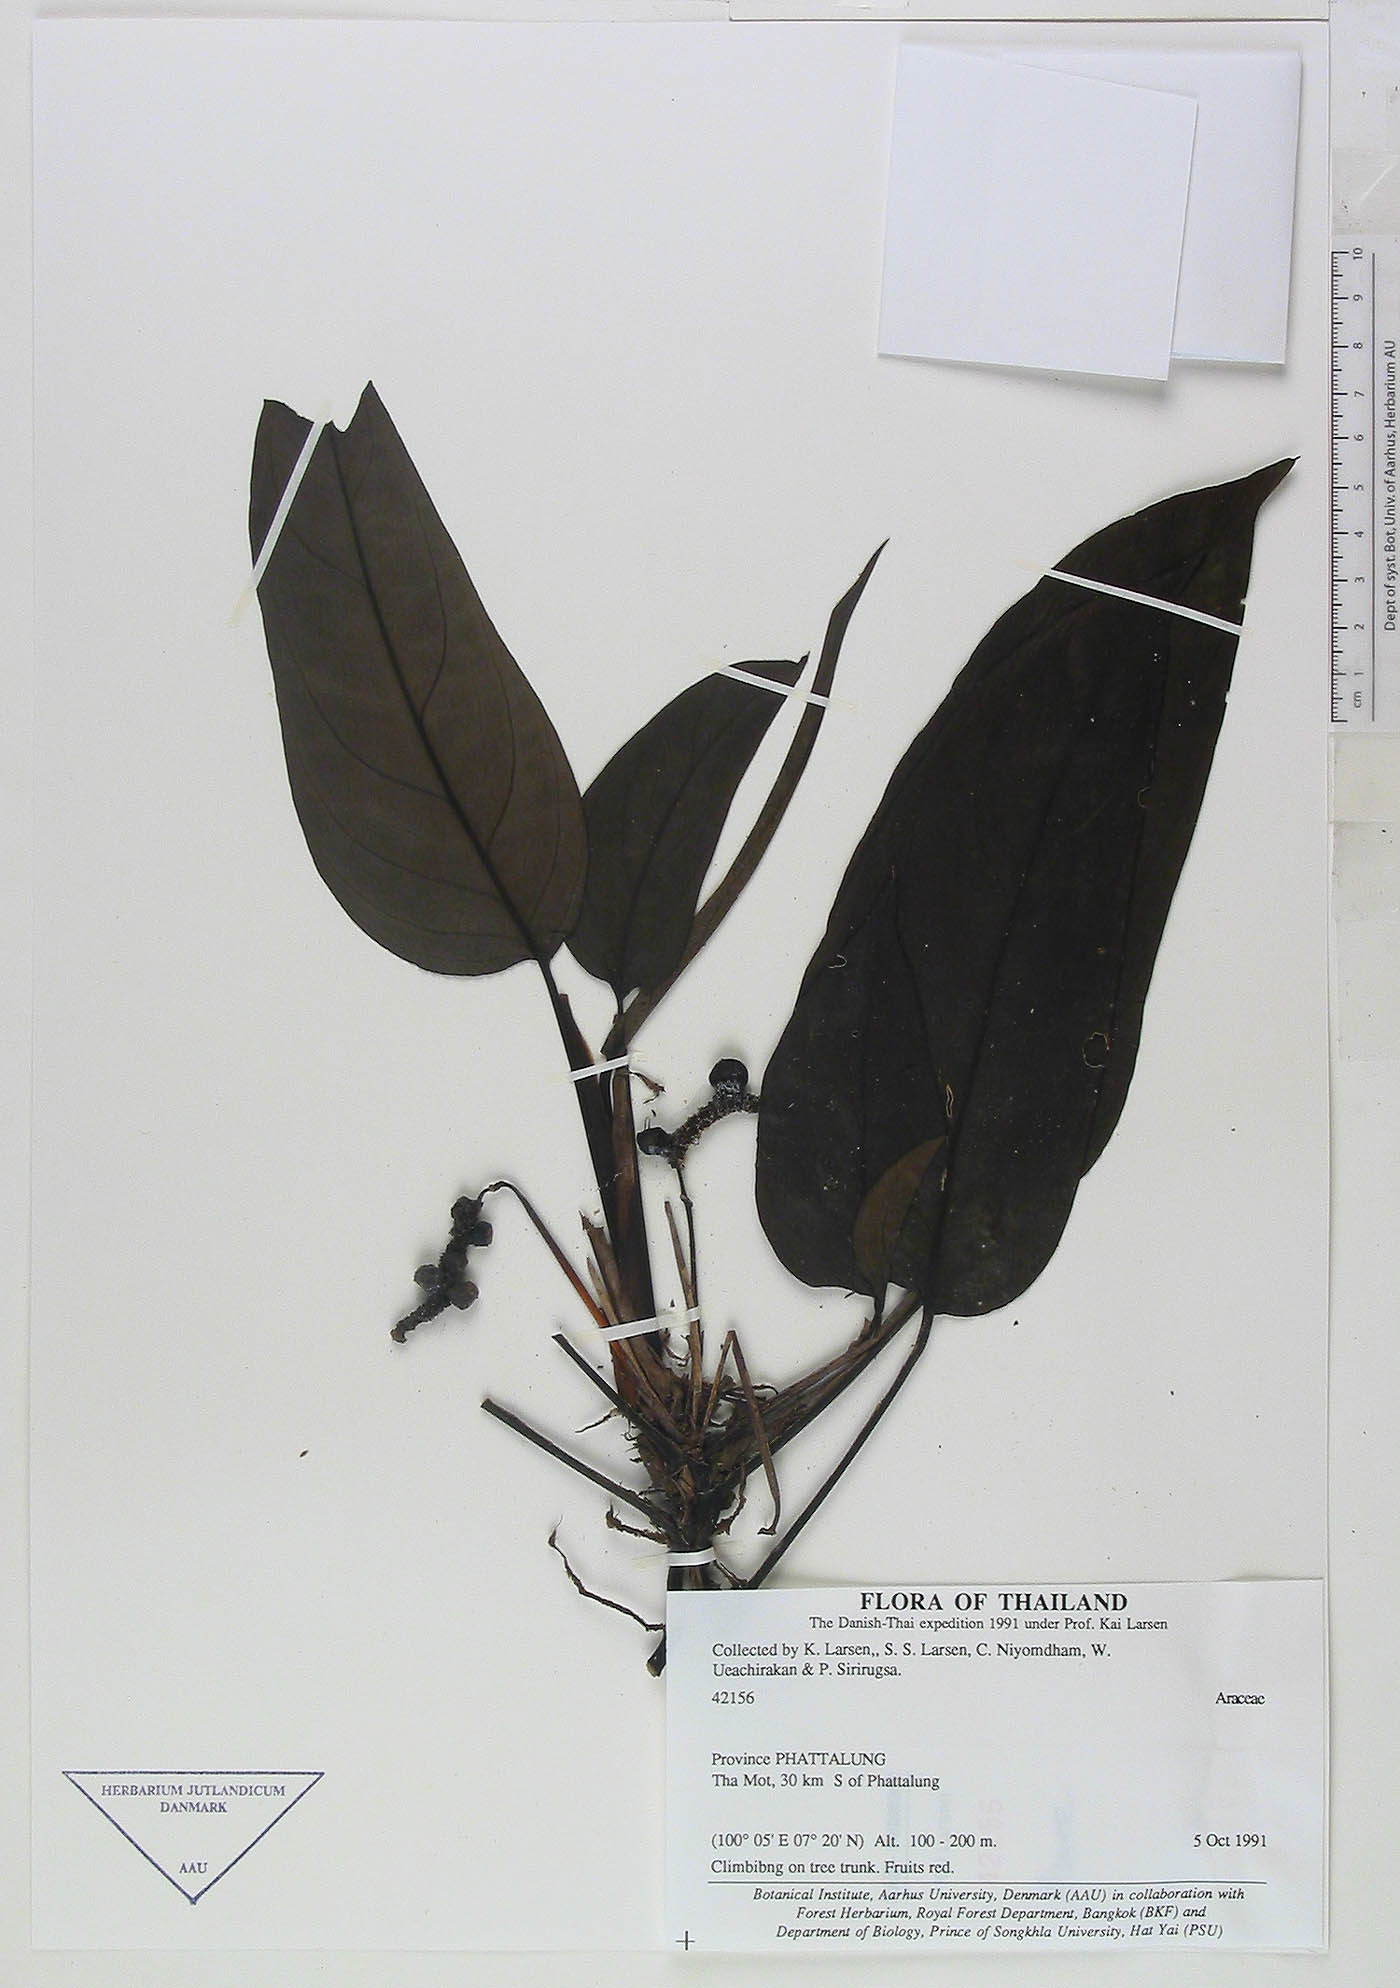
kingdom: Plantae
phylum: Tracheophyta
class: Liliopsida
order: Alismatales
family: Araceae
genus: Anadendrum
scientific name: Anadendrum marcesovaginatum
